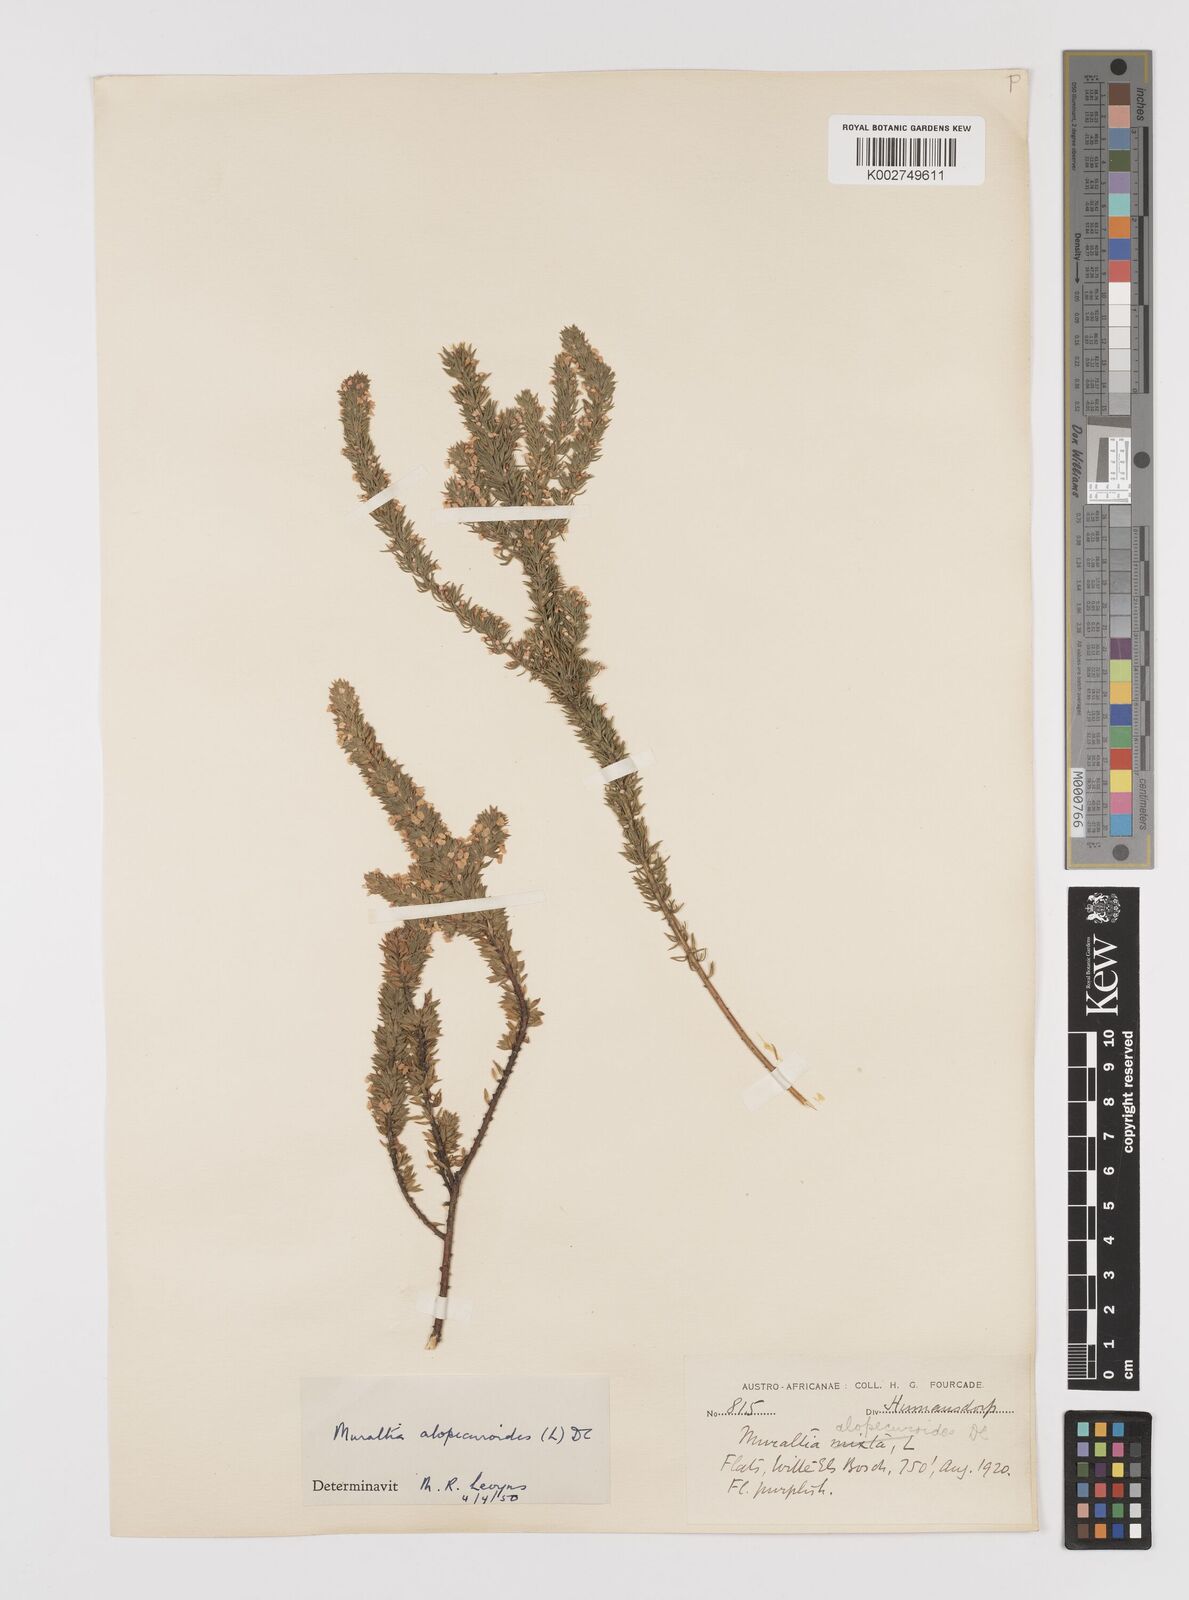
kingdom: Plantae
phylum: Tracheophyta
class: Magnoliopsida
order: Fabales
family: Polygalaceae
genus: Muraltia
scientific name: Muraltia alopecuroides
